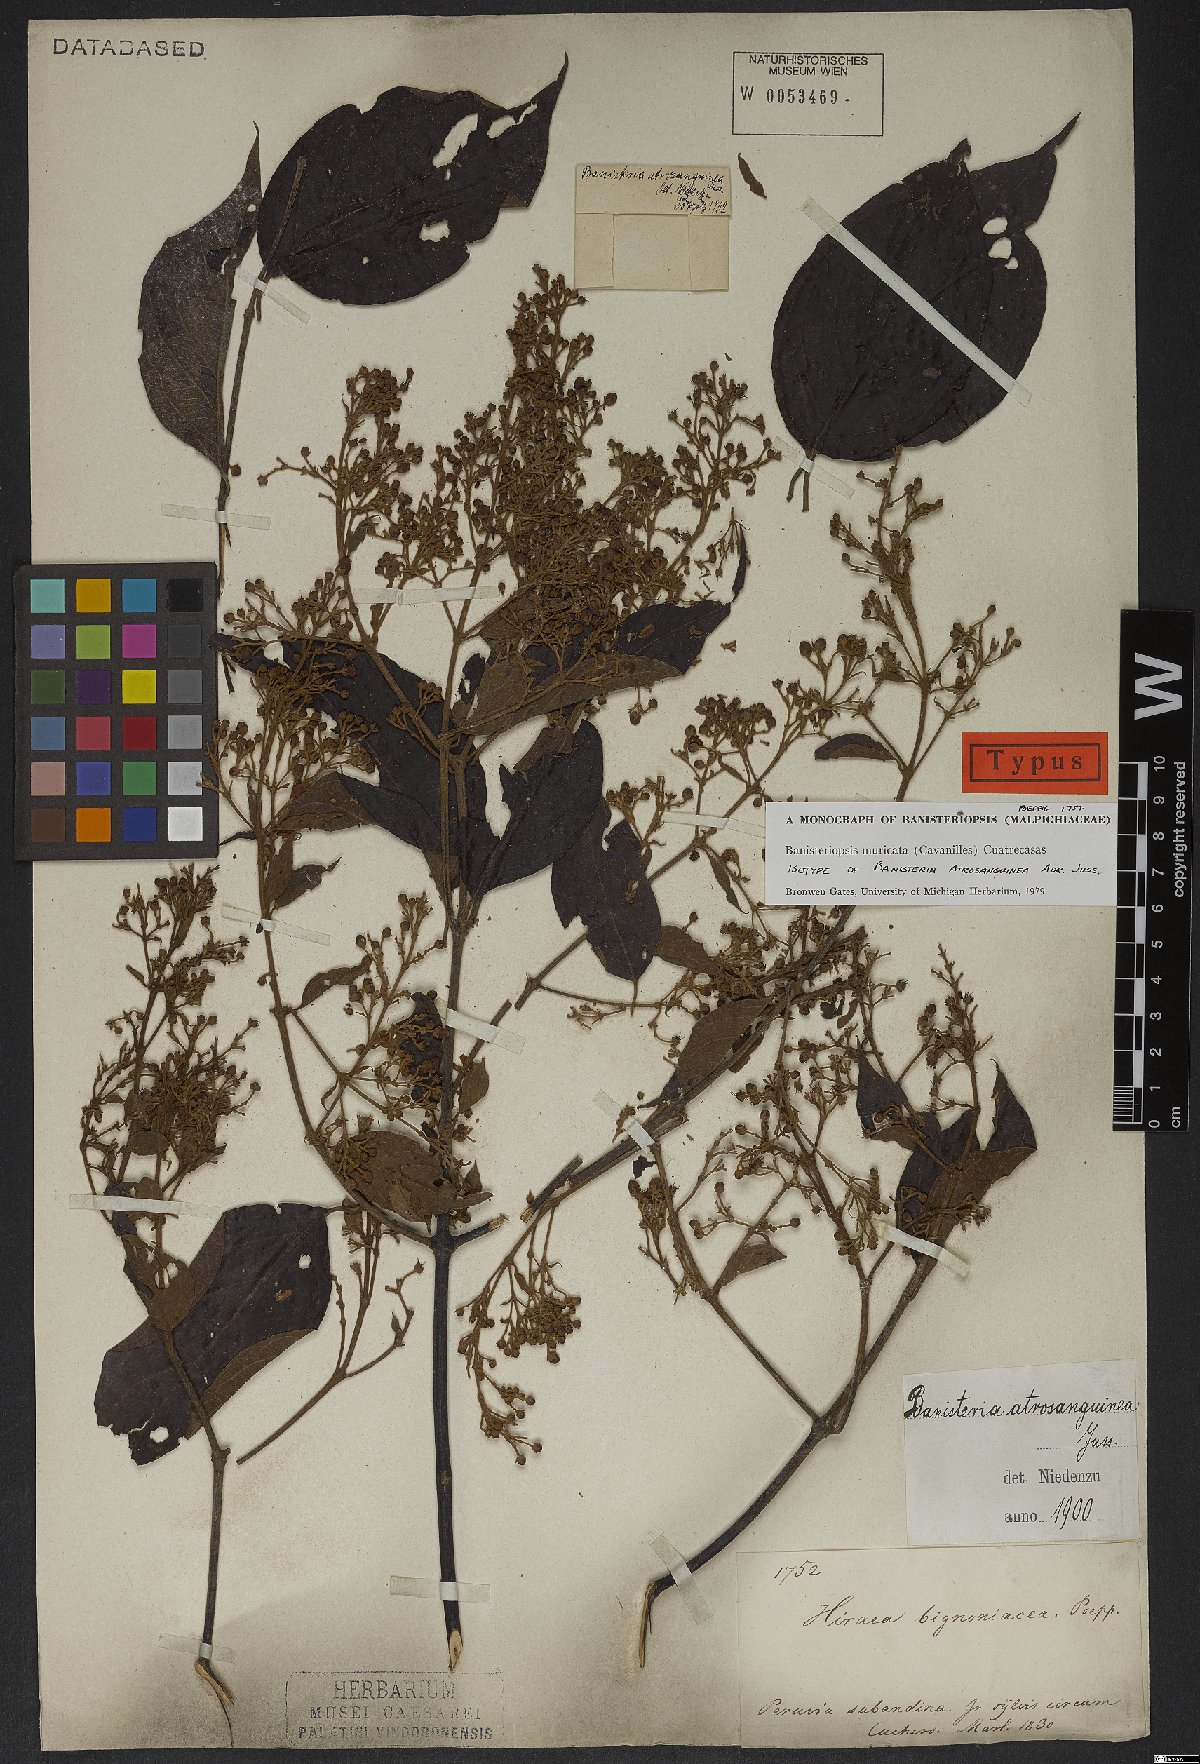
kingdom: Plantae
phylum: Tracheophyta
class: Magnoliopsida
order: Malpighiales
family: Malpighiaceae
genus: Banisteriopsis
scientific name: Banisteriopsis muricata
